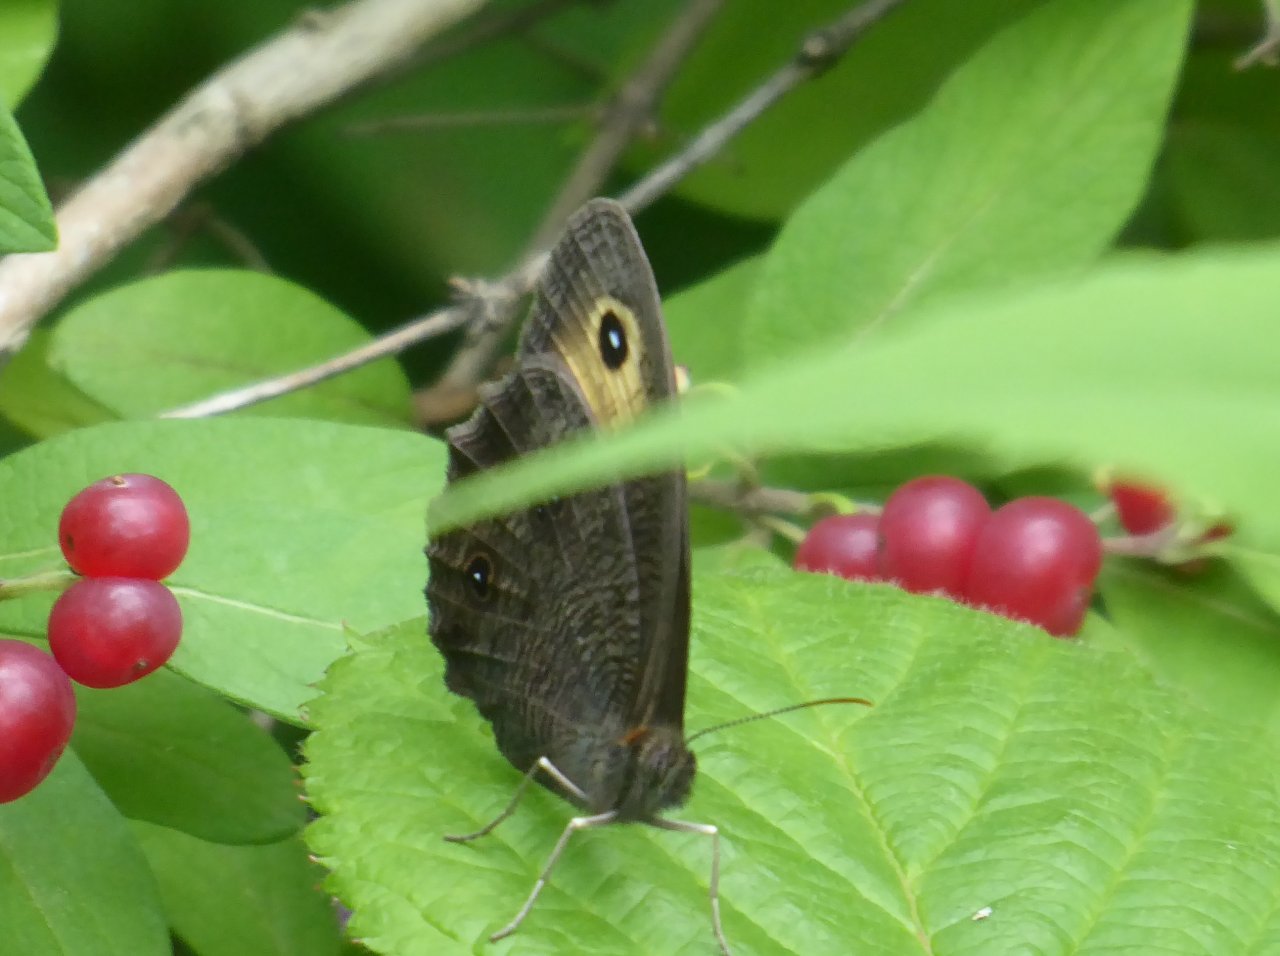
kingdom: Animalia
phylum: Arthropoda
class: Insecta
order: Lepidoptera
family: Nymphalidae
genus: Cercyonis
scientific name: Cercyonis pegala
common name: Common Wood-Nymph
